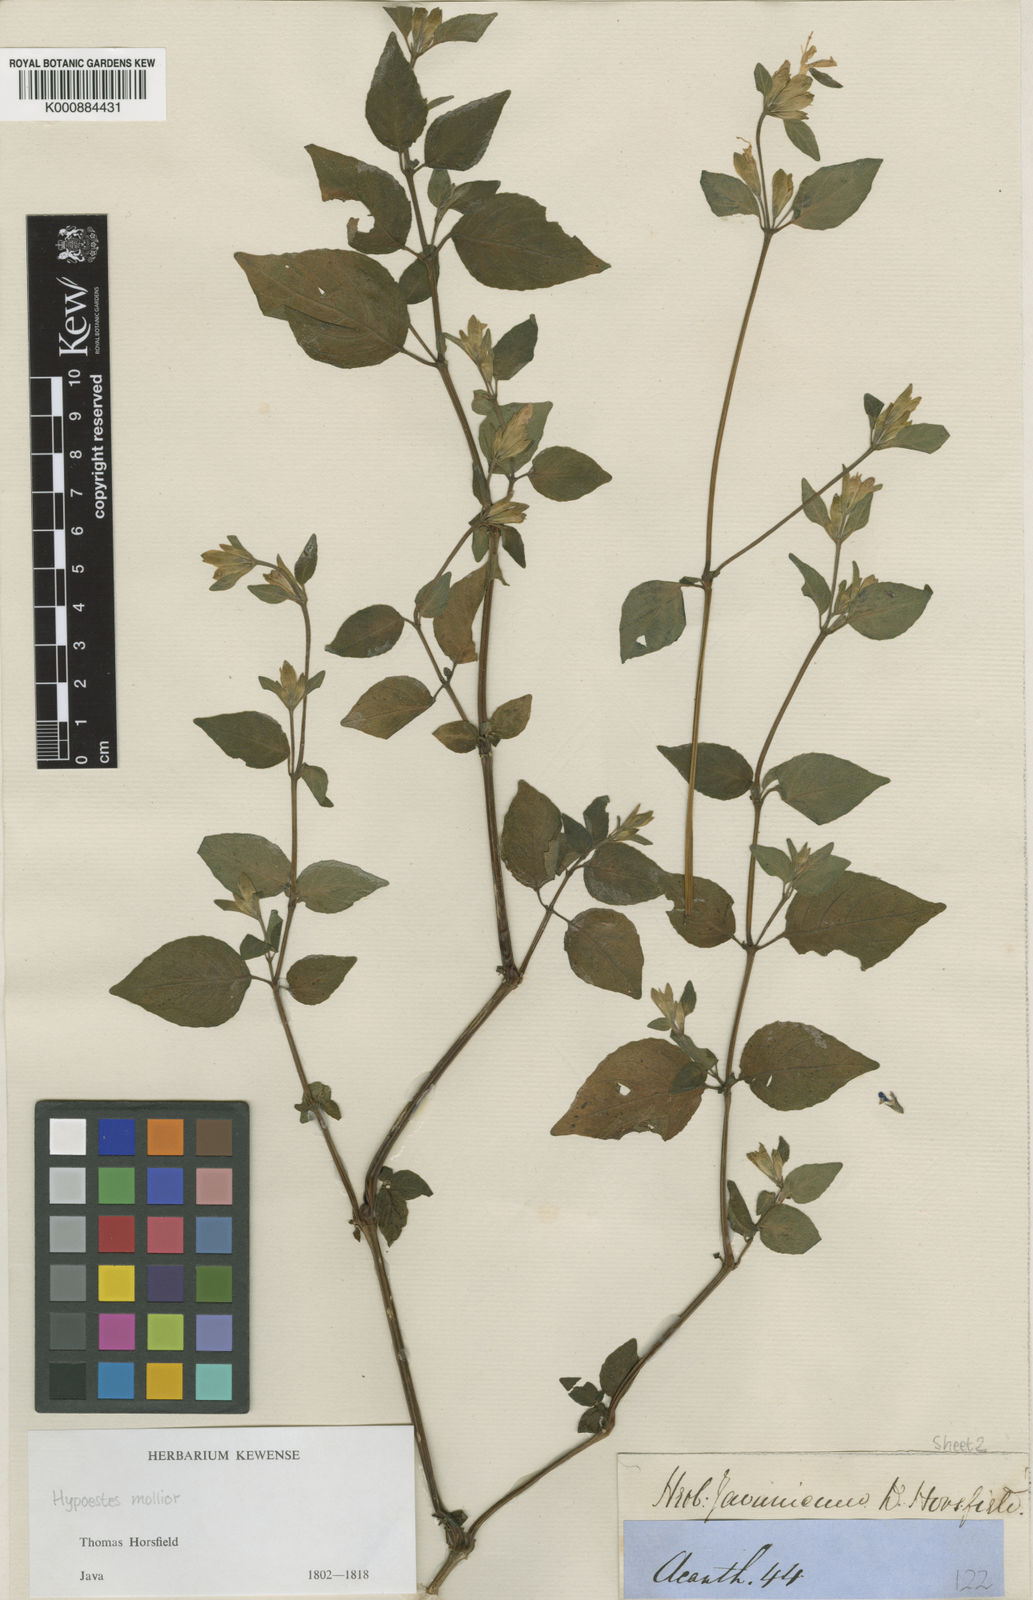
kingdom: Plantae
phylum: Tracheophyta
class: Magnoliopsida
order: Lamiales
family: Acanthaceae
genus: Hypoestes
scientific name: Hypoestes mollior
